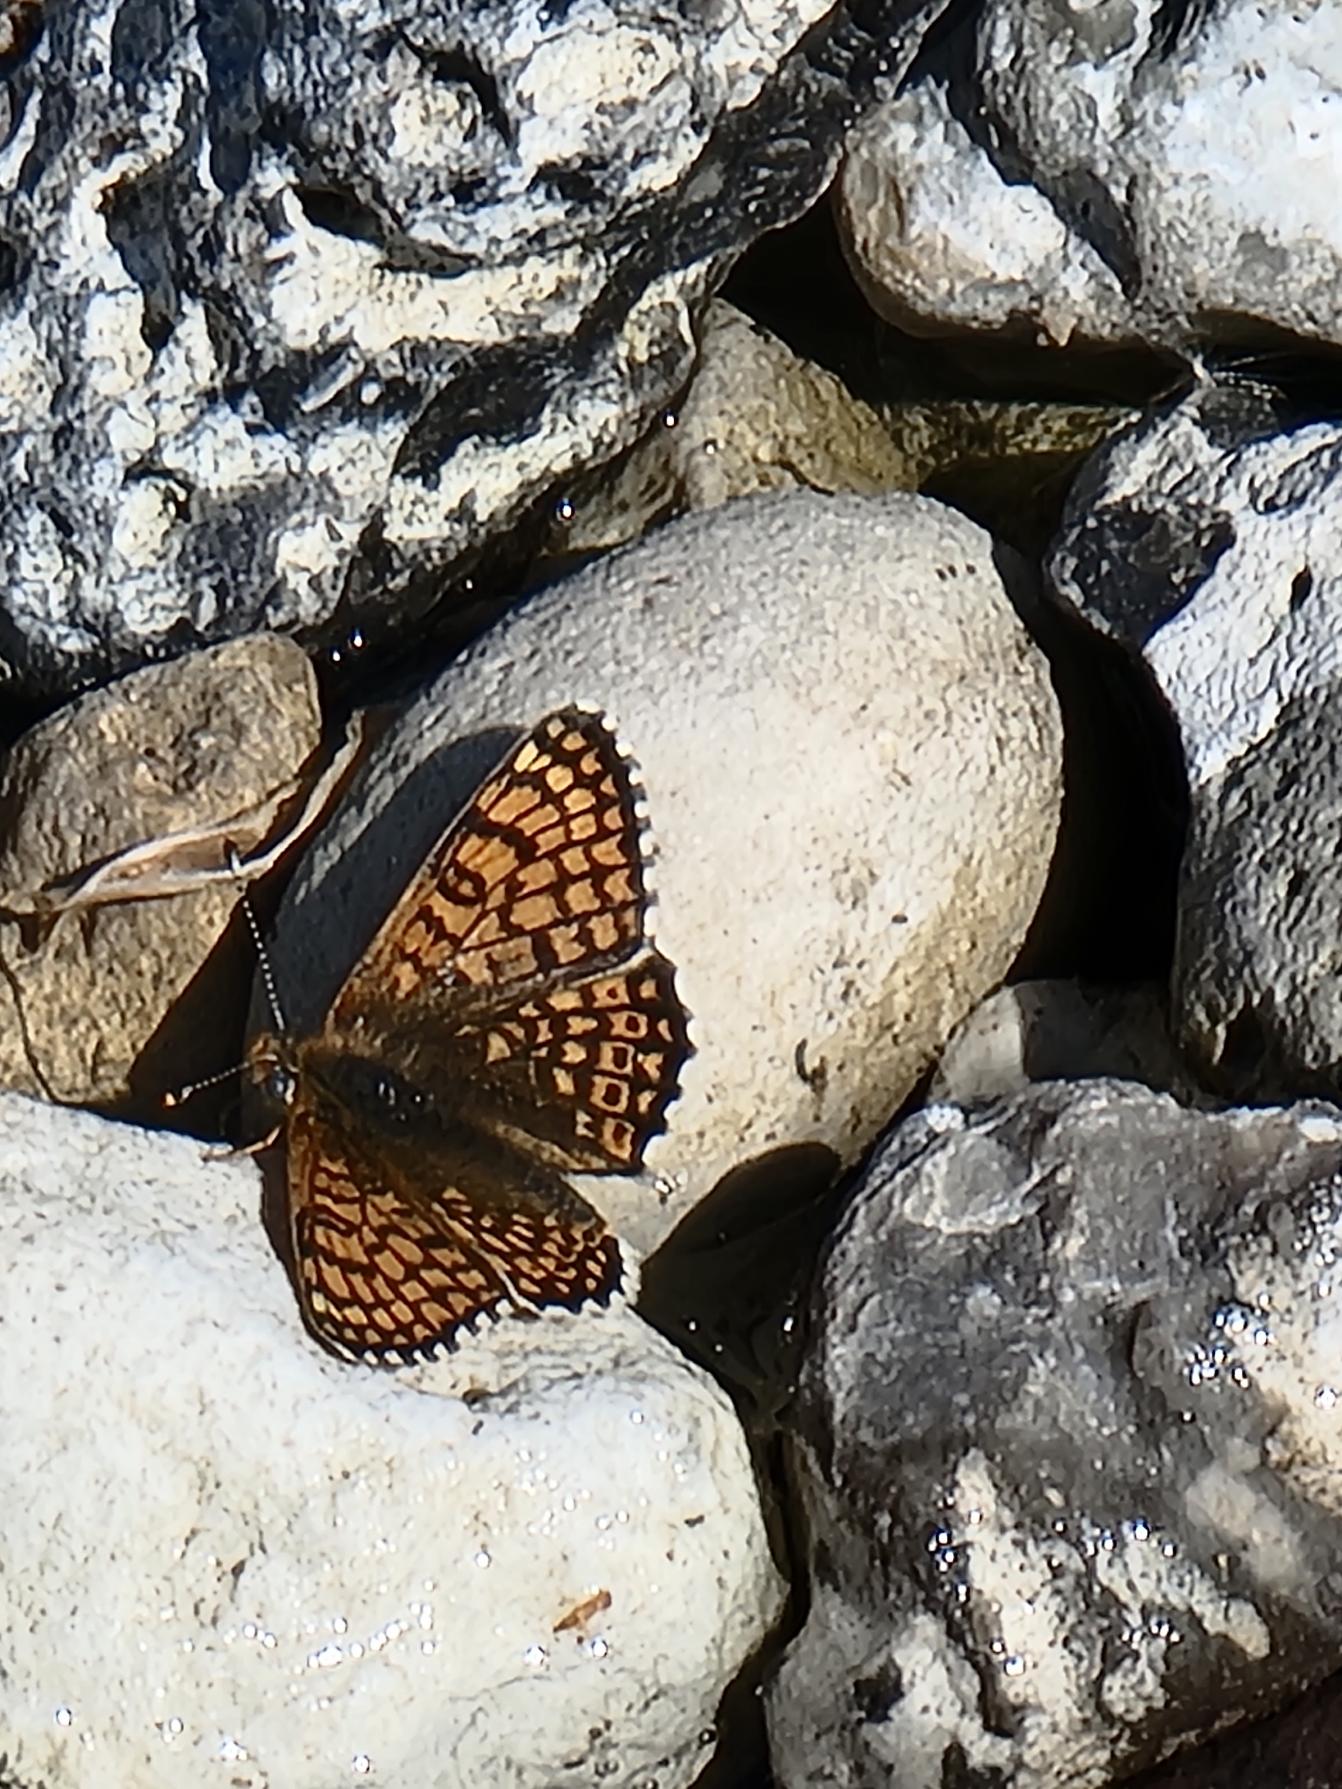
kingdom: Animalia
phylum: Arthropoda
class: Insecta
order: Lepidoptera
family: Nymphalidae
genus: Melitaea
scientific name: Melitaea cinxia
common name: Okkergul pletvinge
